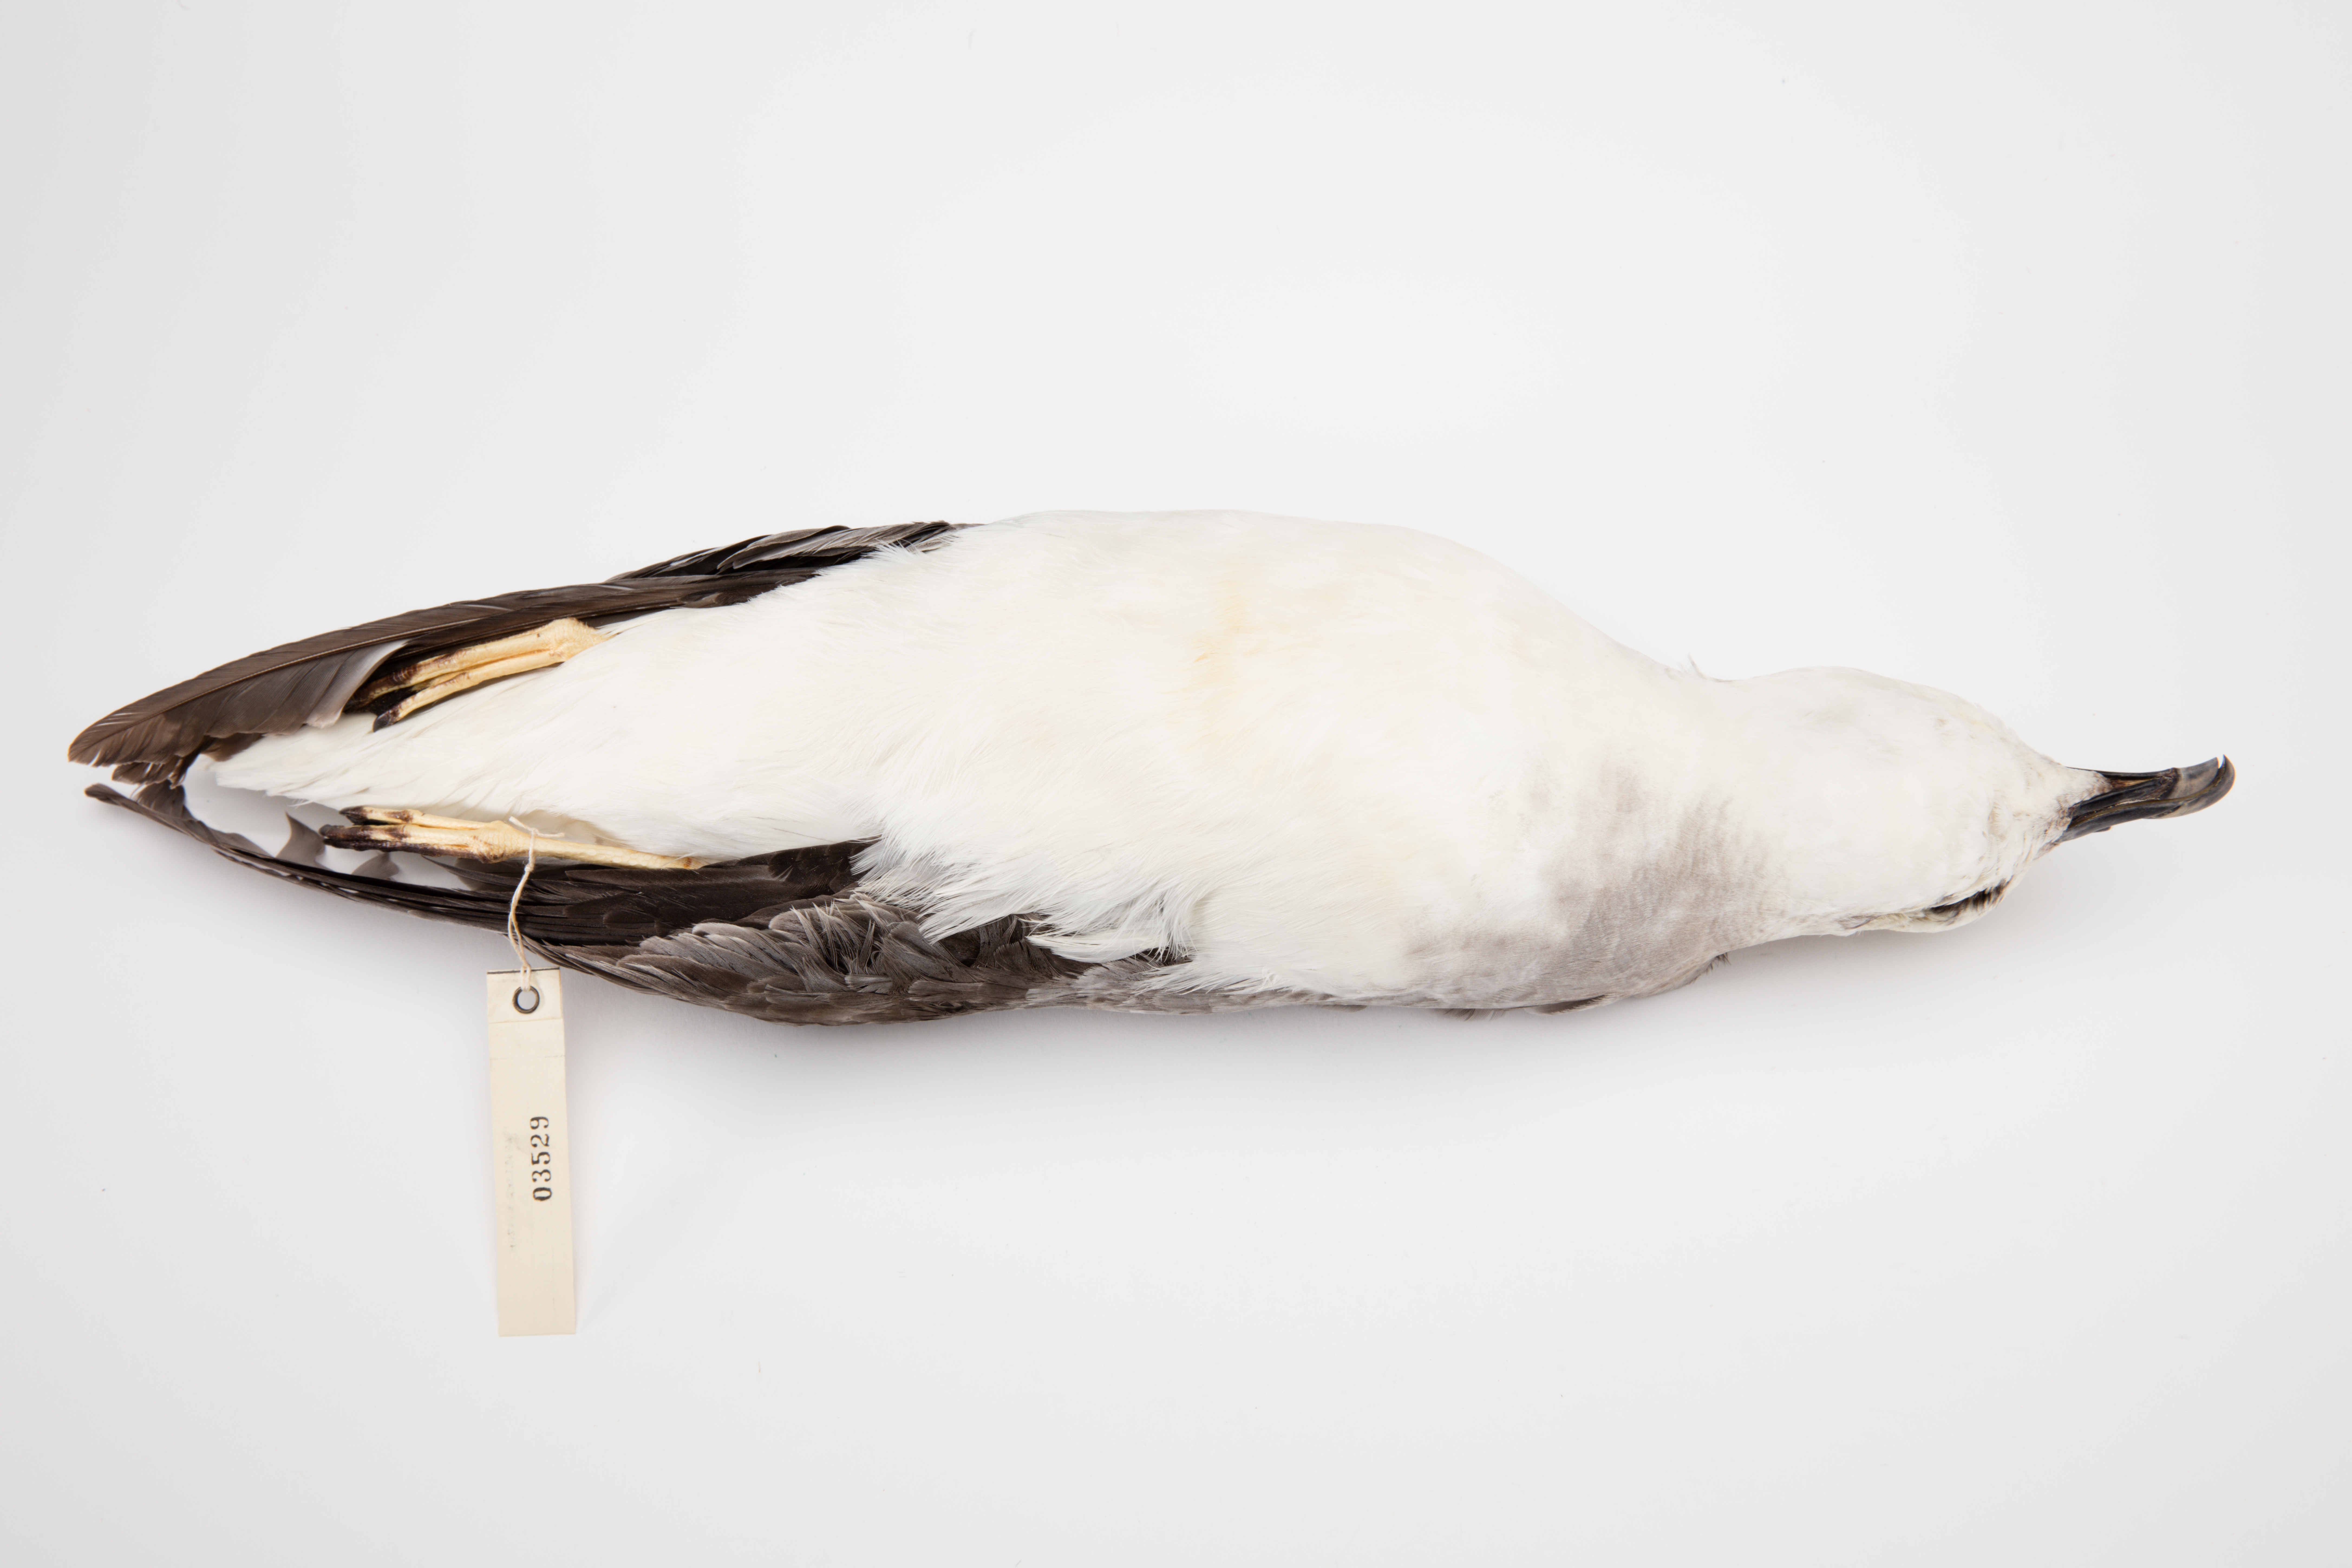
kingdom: Animalia
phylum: Chordata
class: Aves
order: Procellariiformes
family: Procellariidae
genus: Pterodroma
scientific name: Pterodroma lessonii
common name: White-headed petrel
